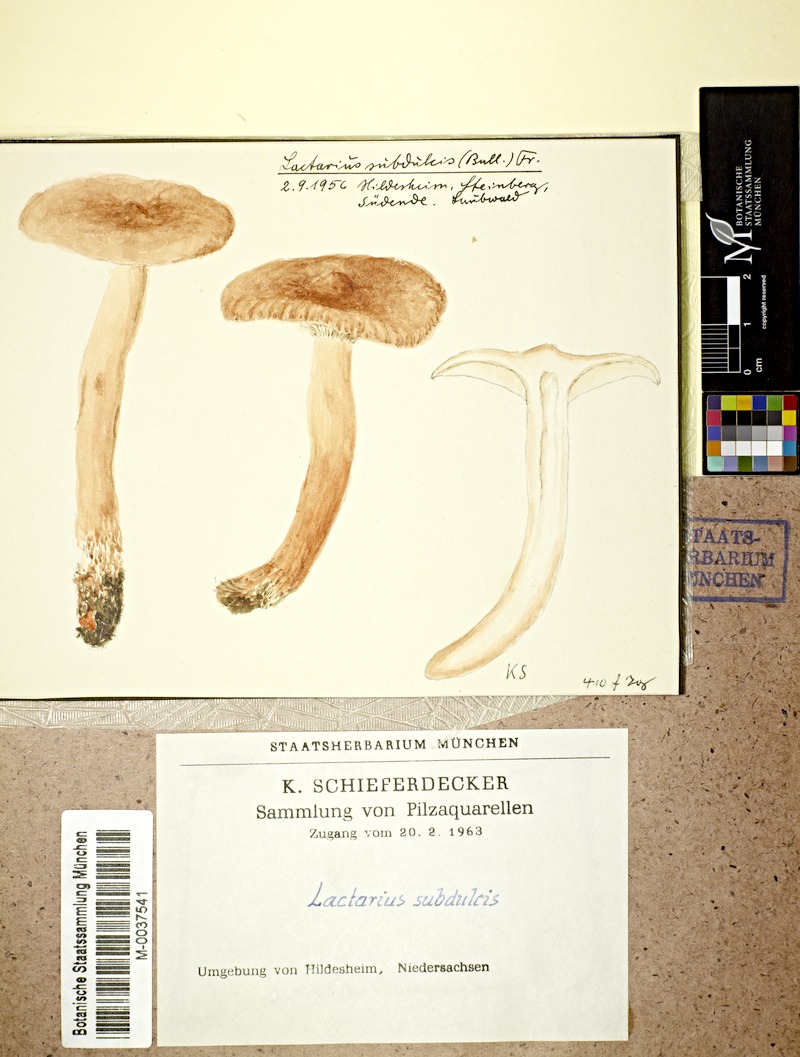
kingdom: Fungi
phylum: Basidiomycota
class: Agaricomycetes
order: Russulales
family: Russulaceae
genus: Lactarius
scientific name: Lactarius
